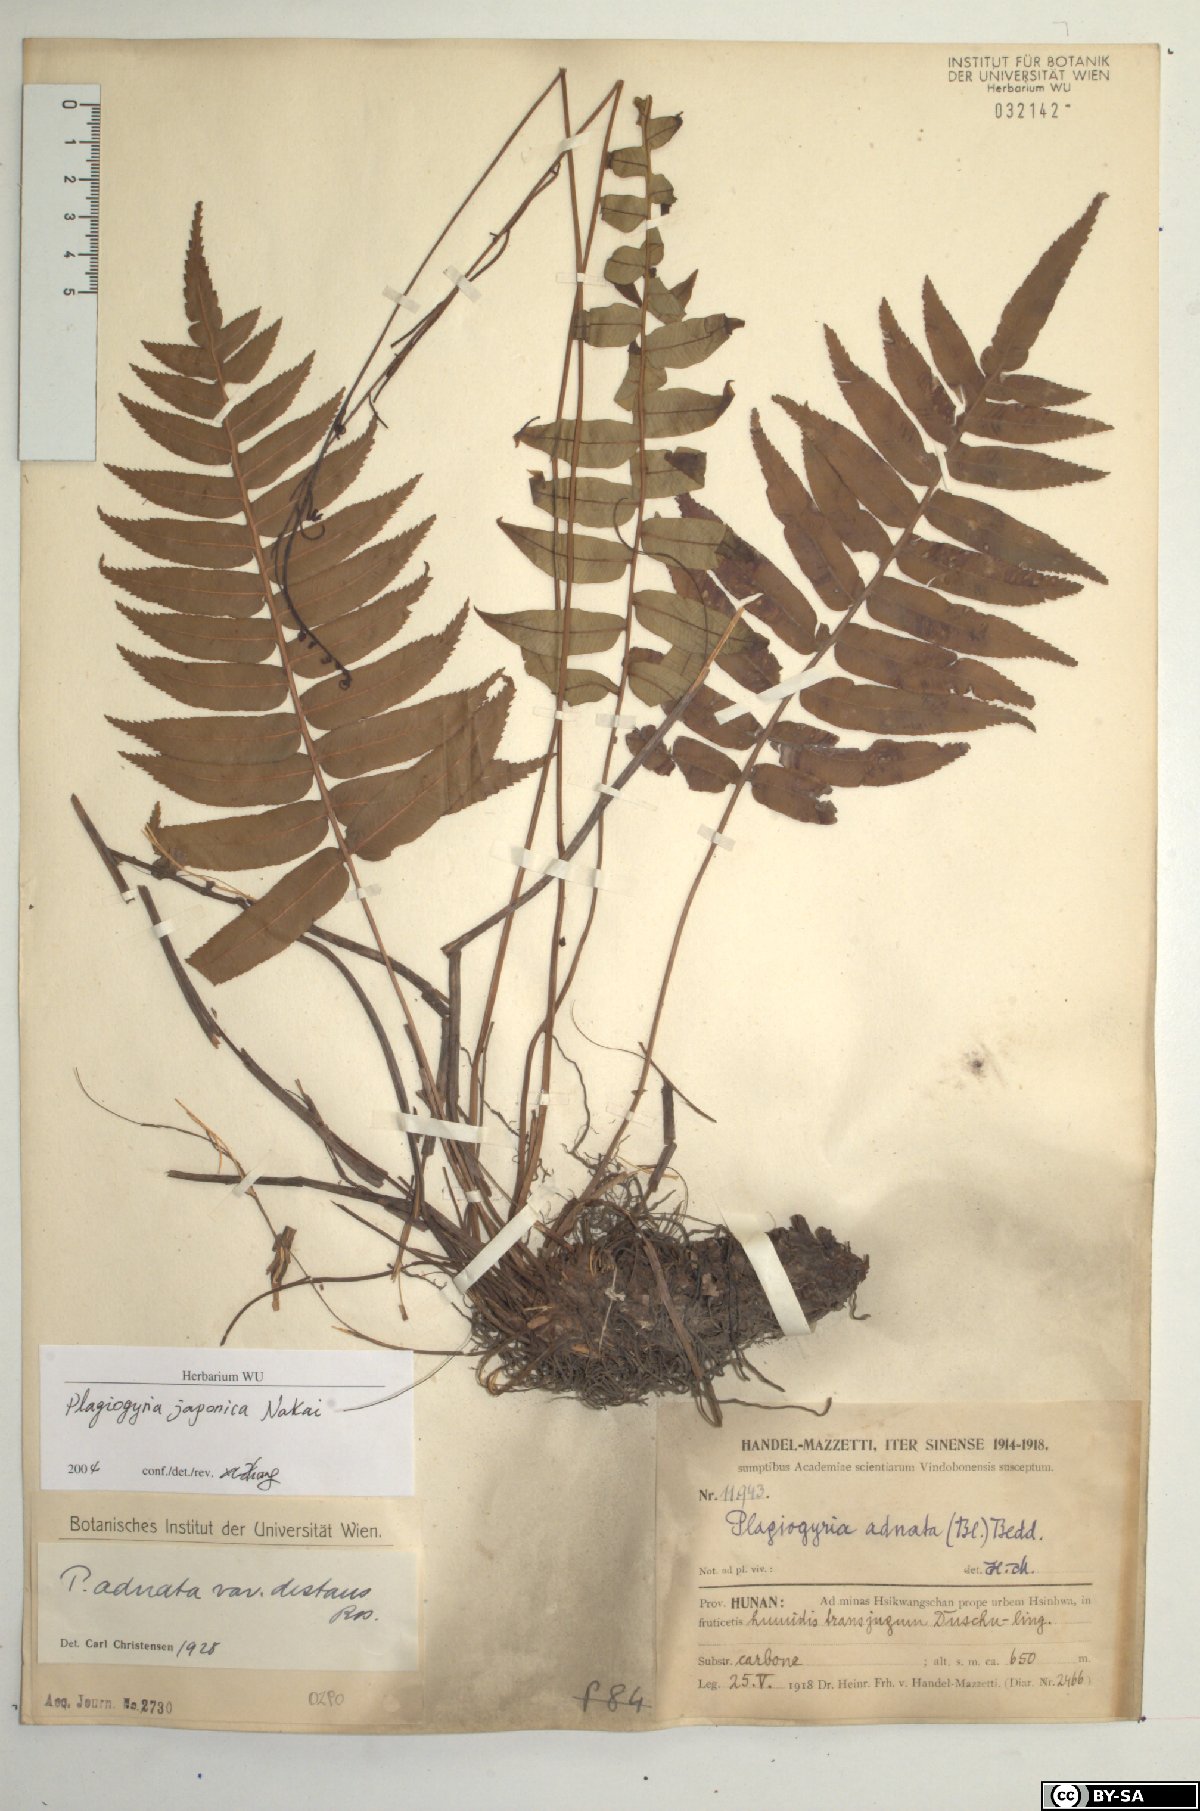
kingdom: Plantae
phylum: Tracheophyta
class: Polypodiopsida
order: Cyatheales
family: Plagiogyriaceae
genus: Plagiogyria
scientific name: Plagiogyria japonica
